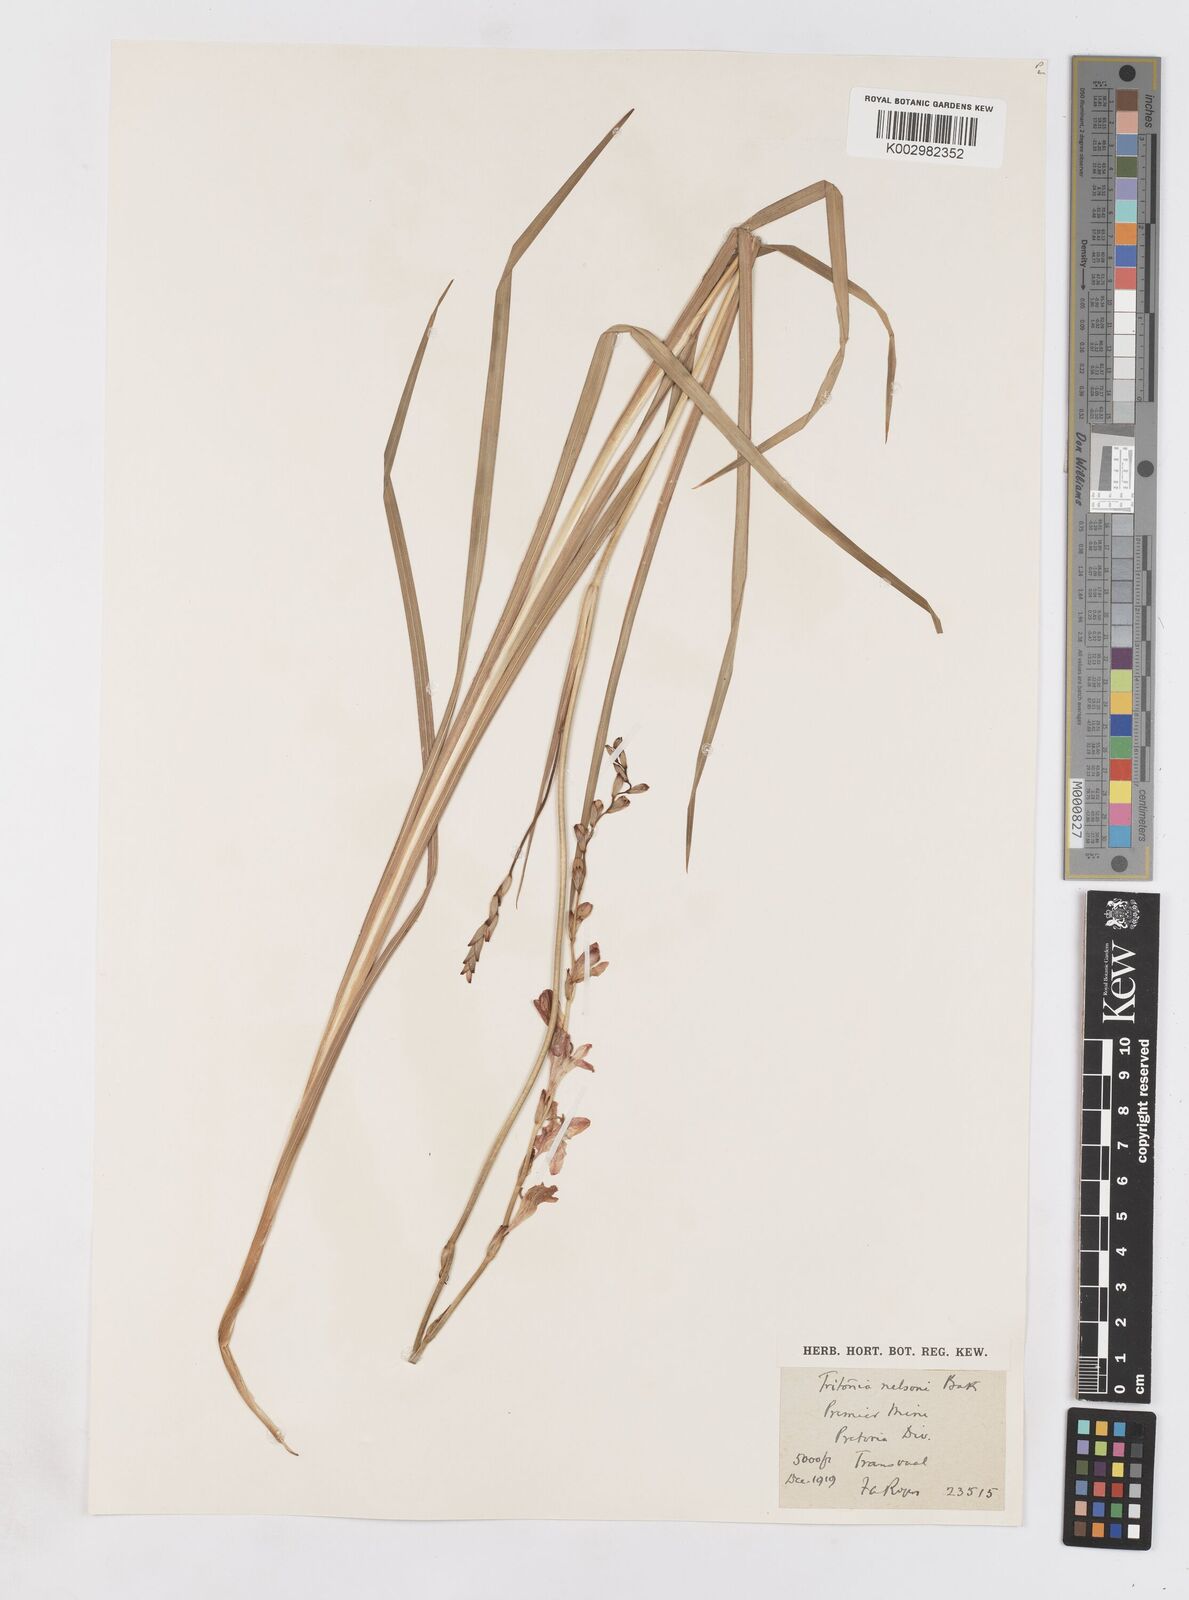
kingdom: Plantae
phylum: Tracheophyta
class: Liliopsida
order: Asparagales
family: Iridaceae
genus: Tritonia
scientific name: Tritonia nelsonii
